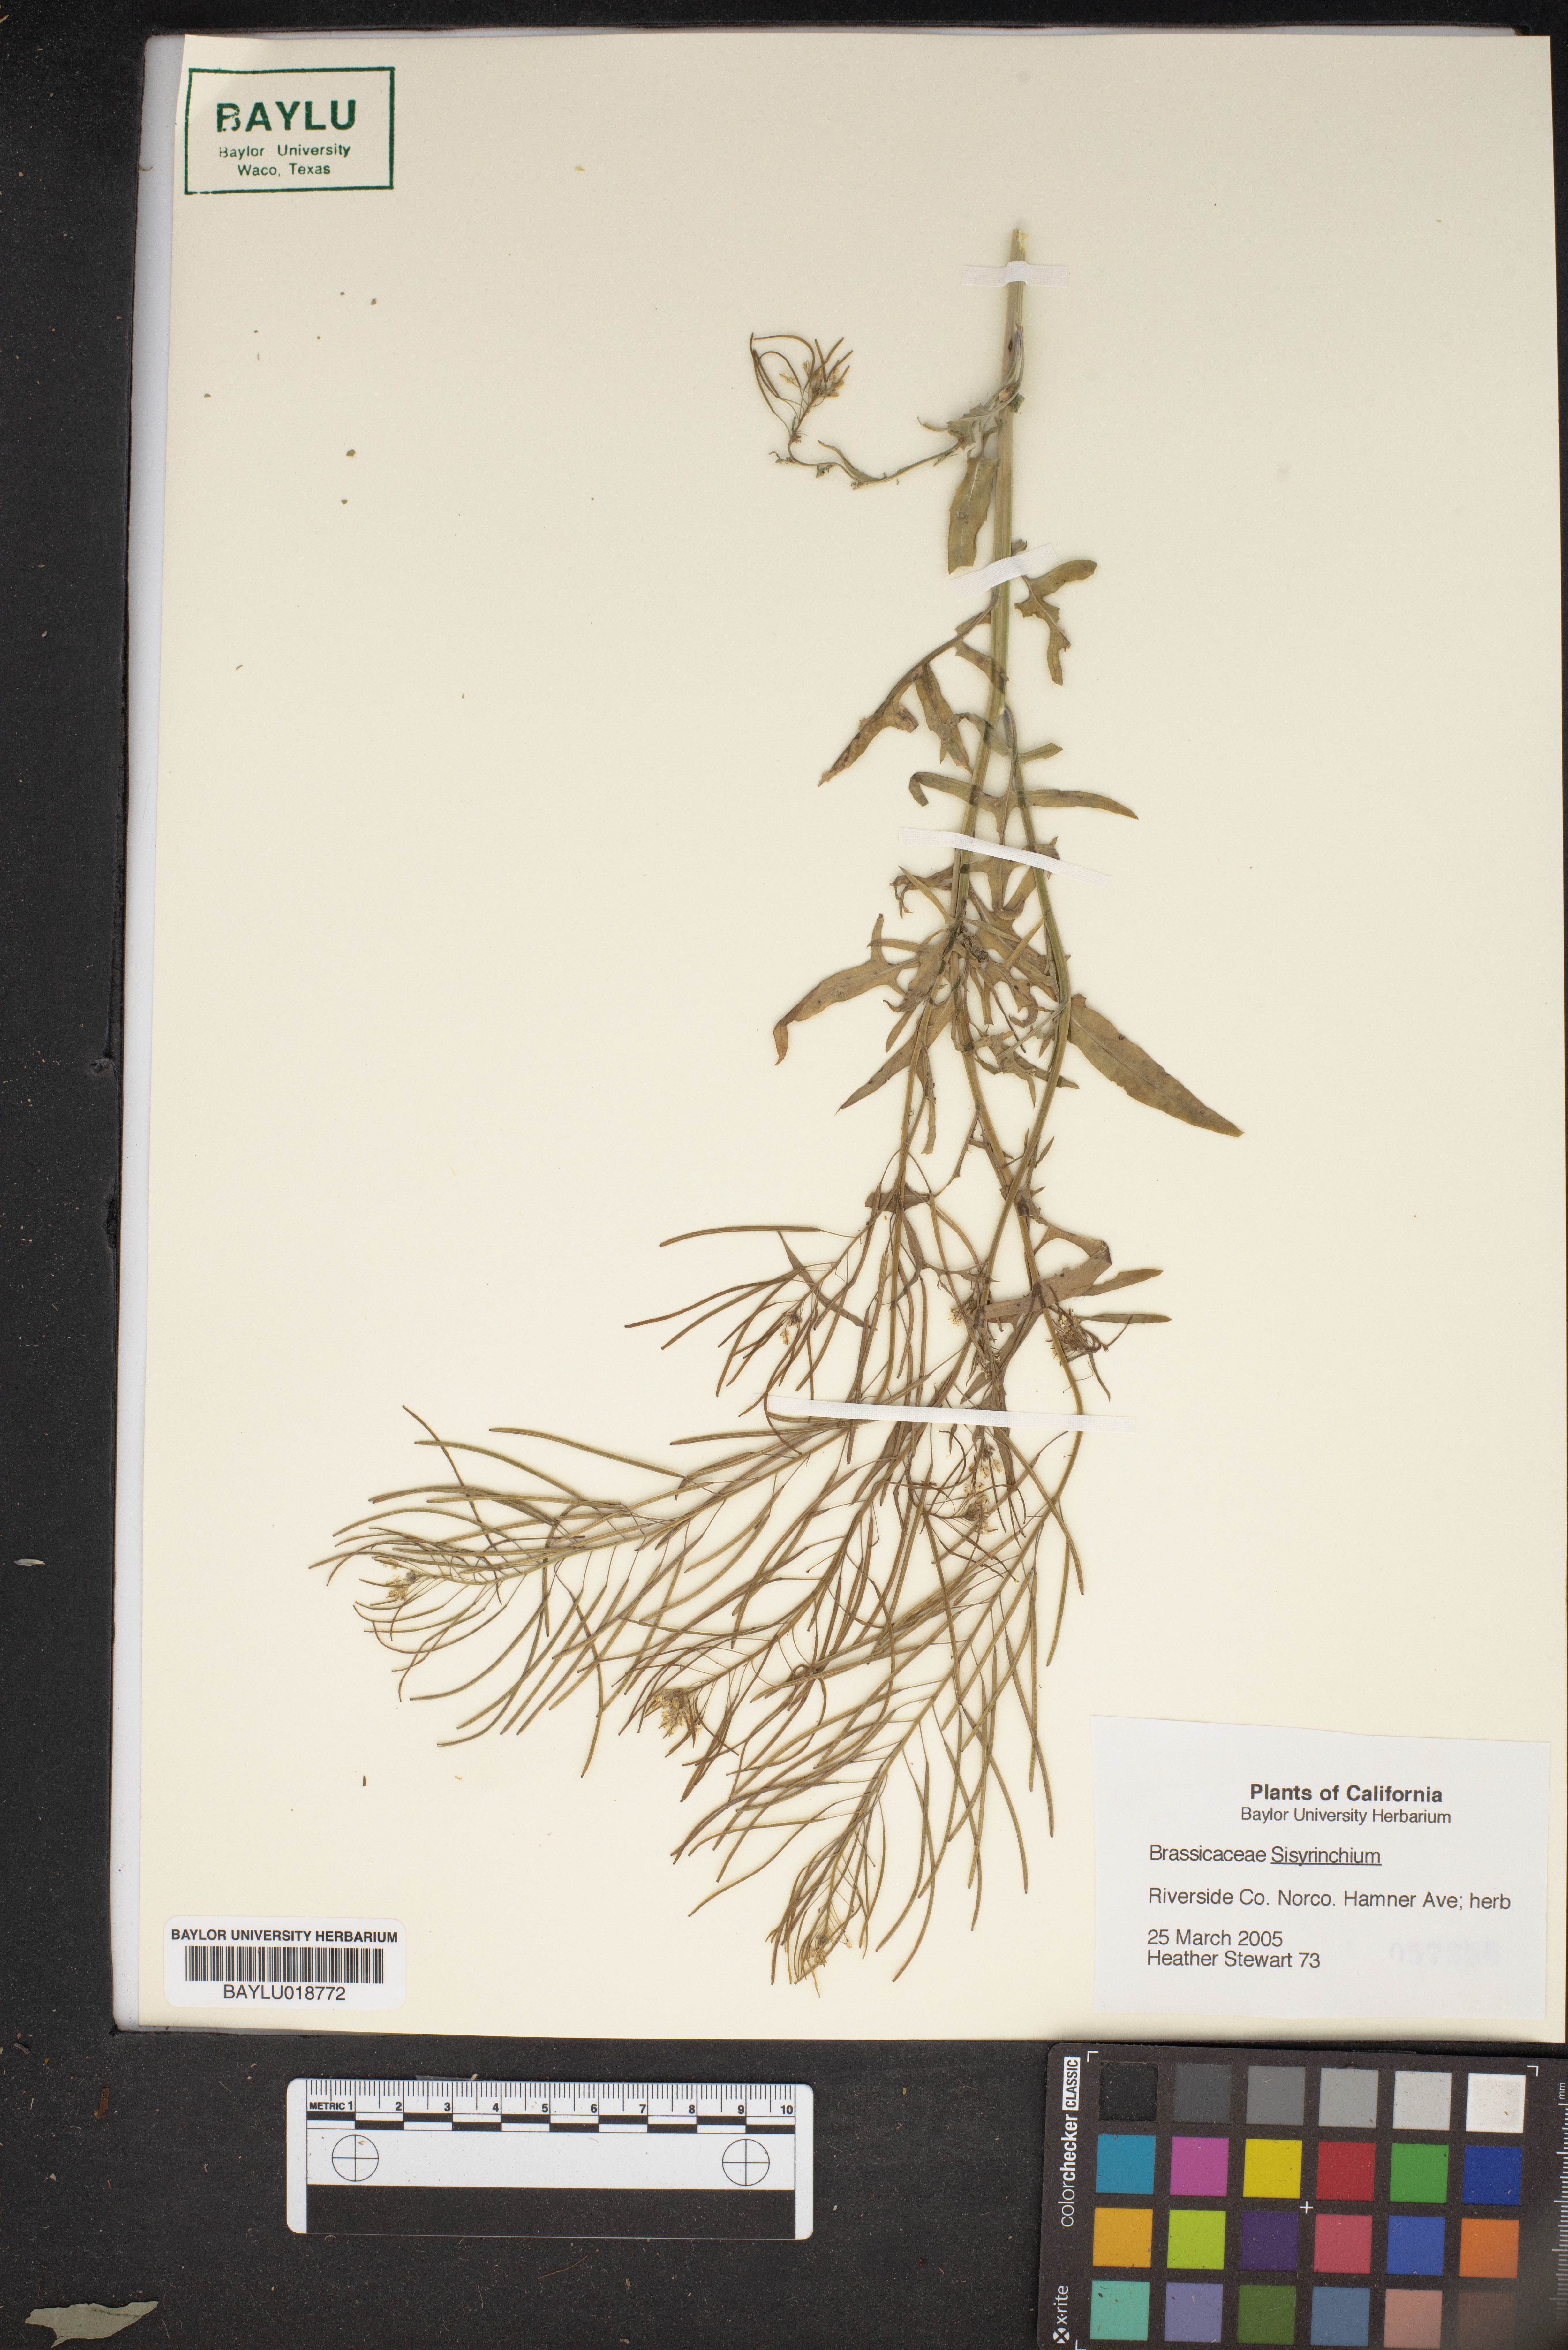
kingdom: Plantae
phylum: Tracheophyta
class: Liliopsida
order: Asparagales
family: Iridaceae
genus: Sisyrinchium
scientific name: Sisyrinchium
